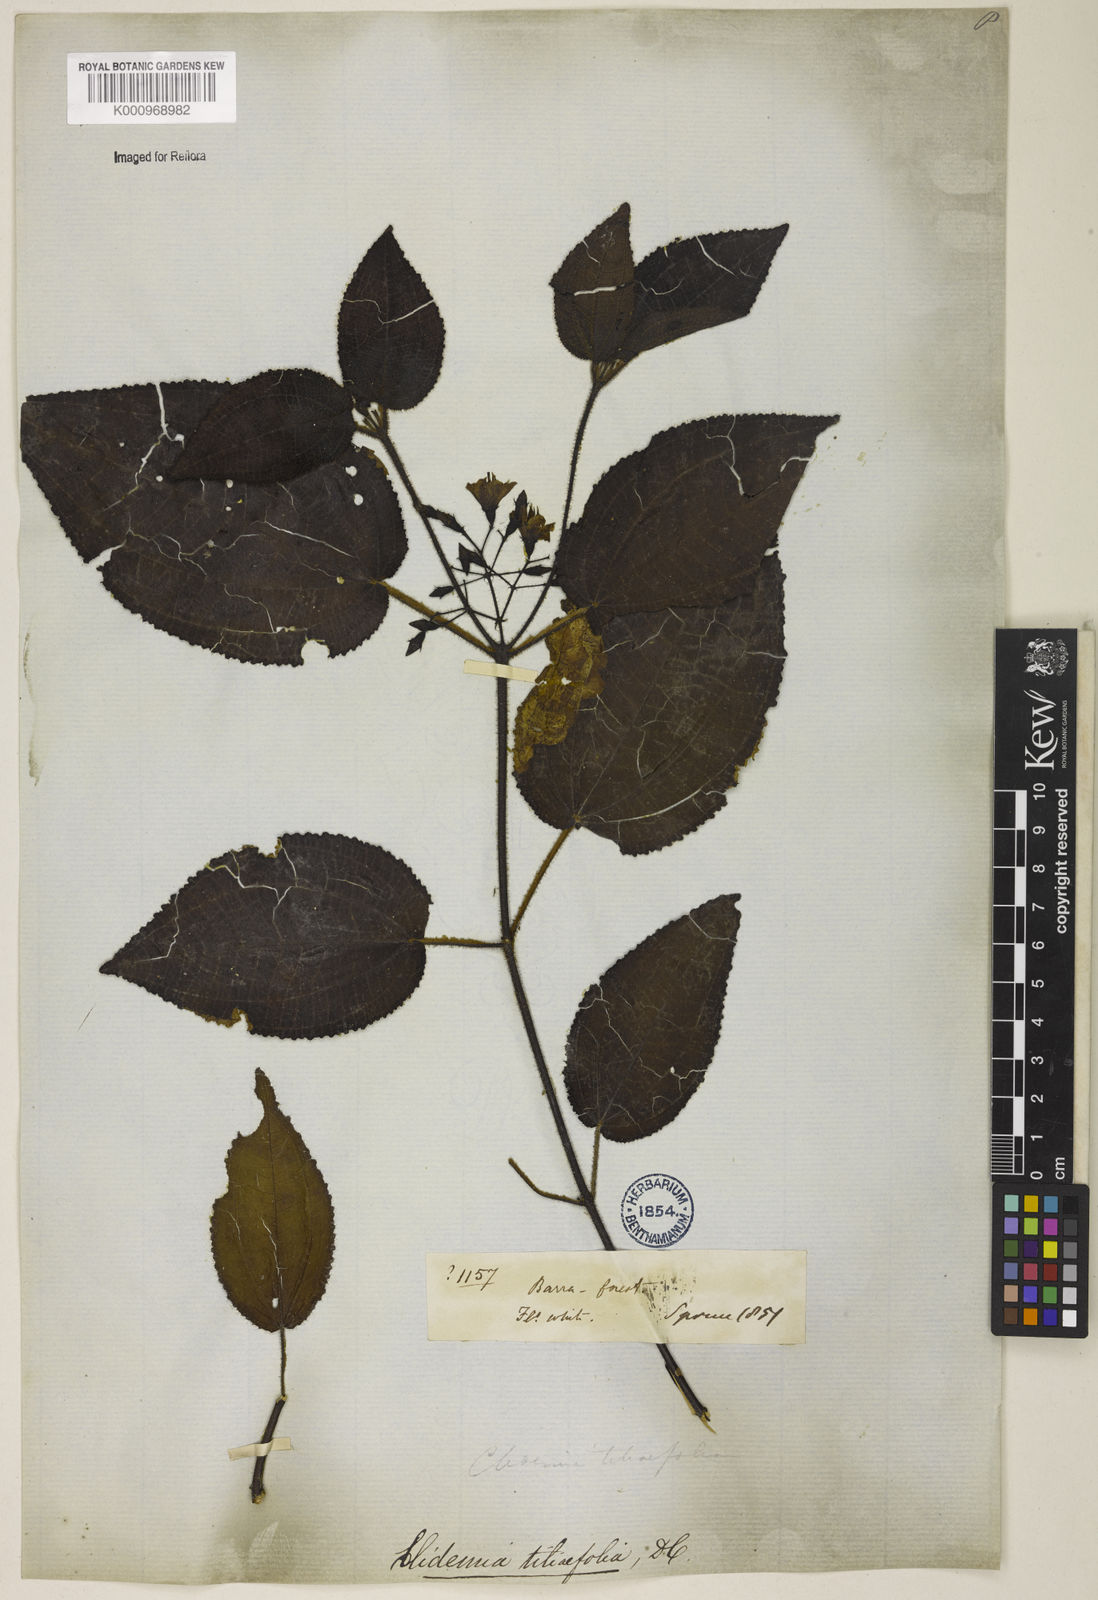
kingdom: Plantae
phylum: Tracheophyta
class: Magnoliopsida
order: Myrtales
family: Melastomataceae
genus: Miconia
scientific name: Miconia crenata
